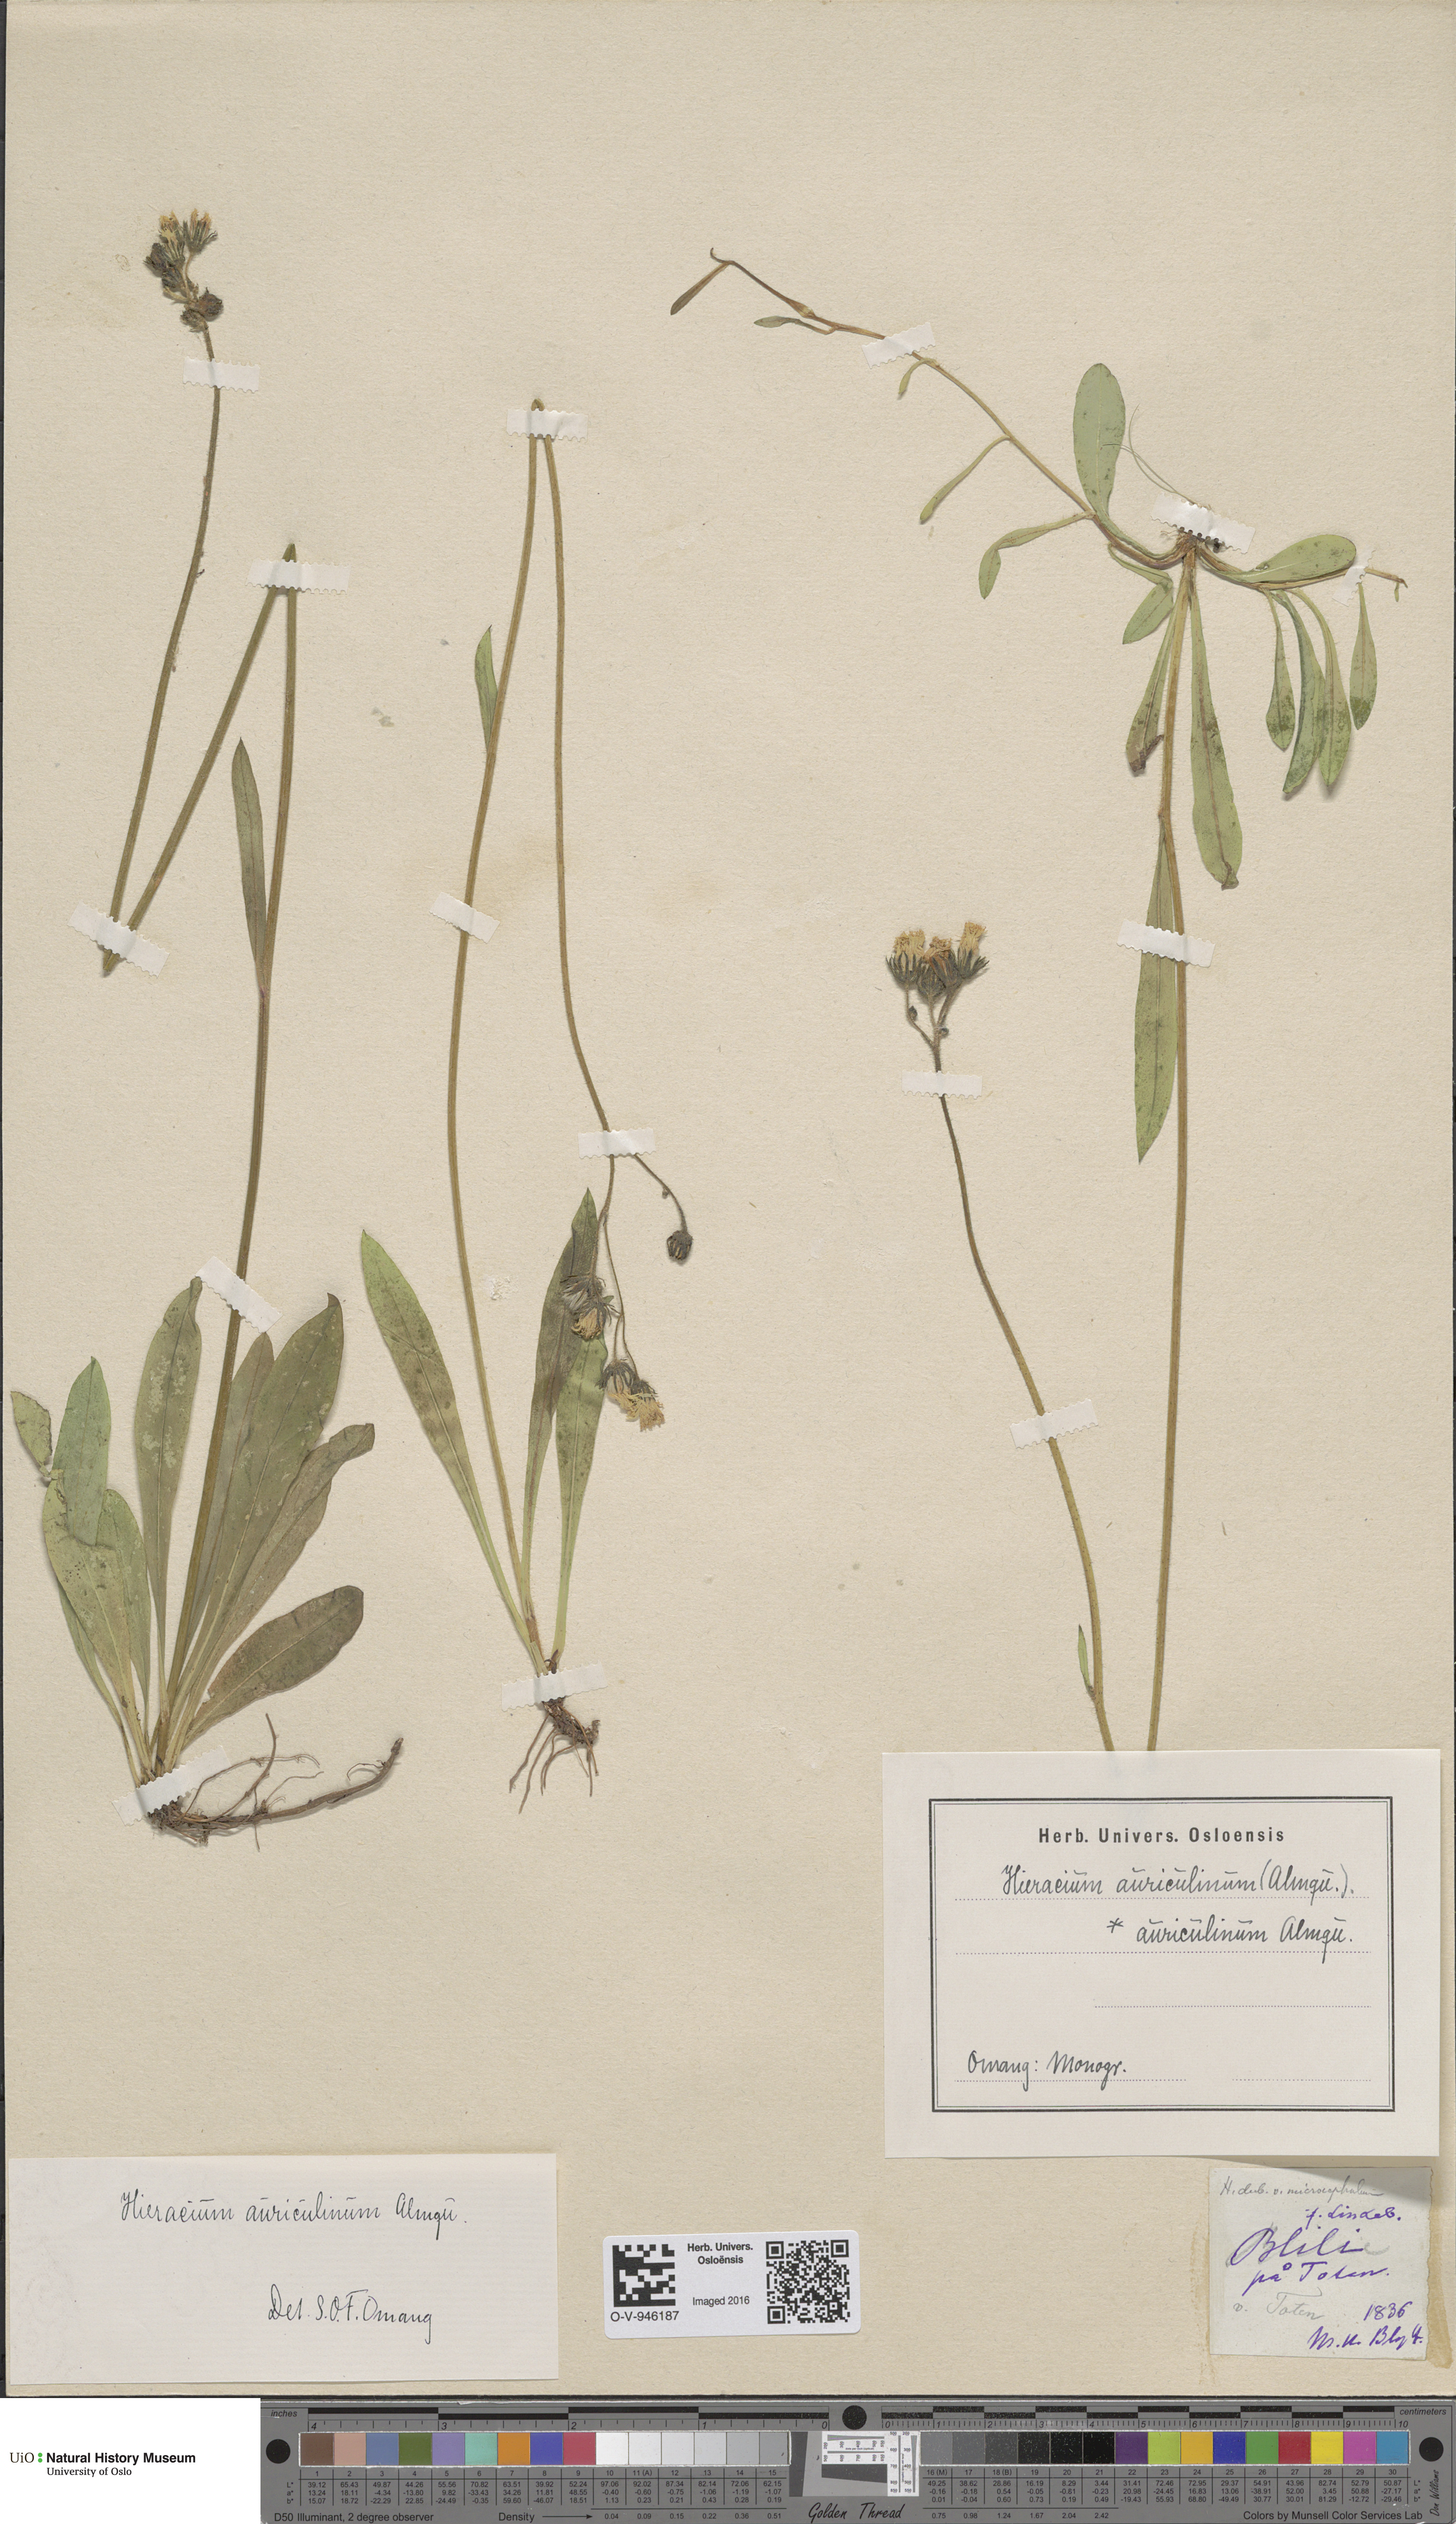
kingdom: Plantae
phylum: Tracheophyta
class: Magnoliopsida
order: Asterales
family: Asteraceae
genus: Pilosella
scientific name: Pilosella dubia
